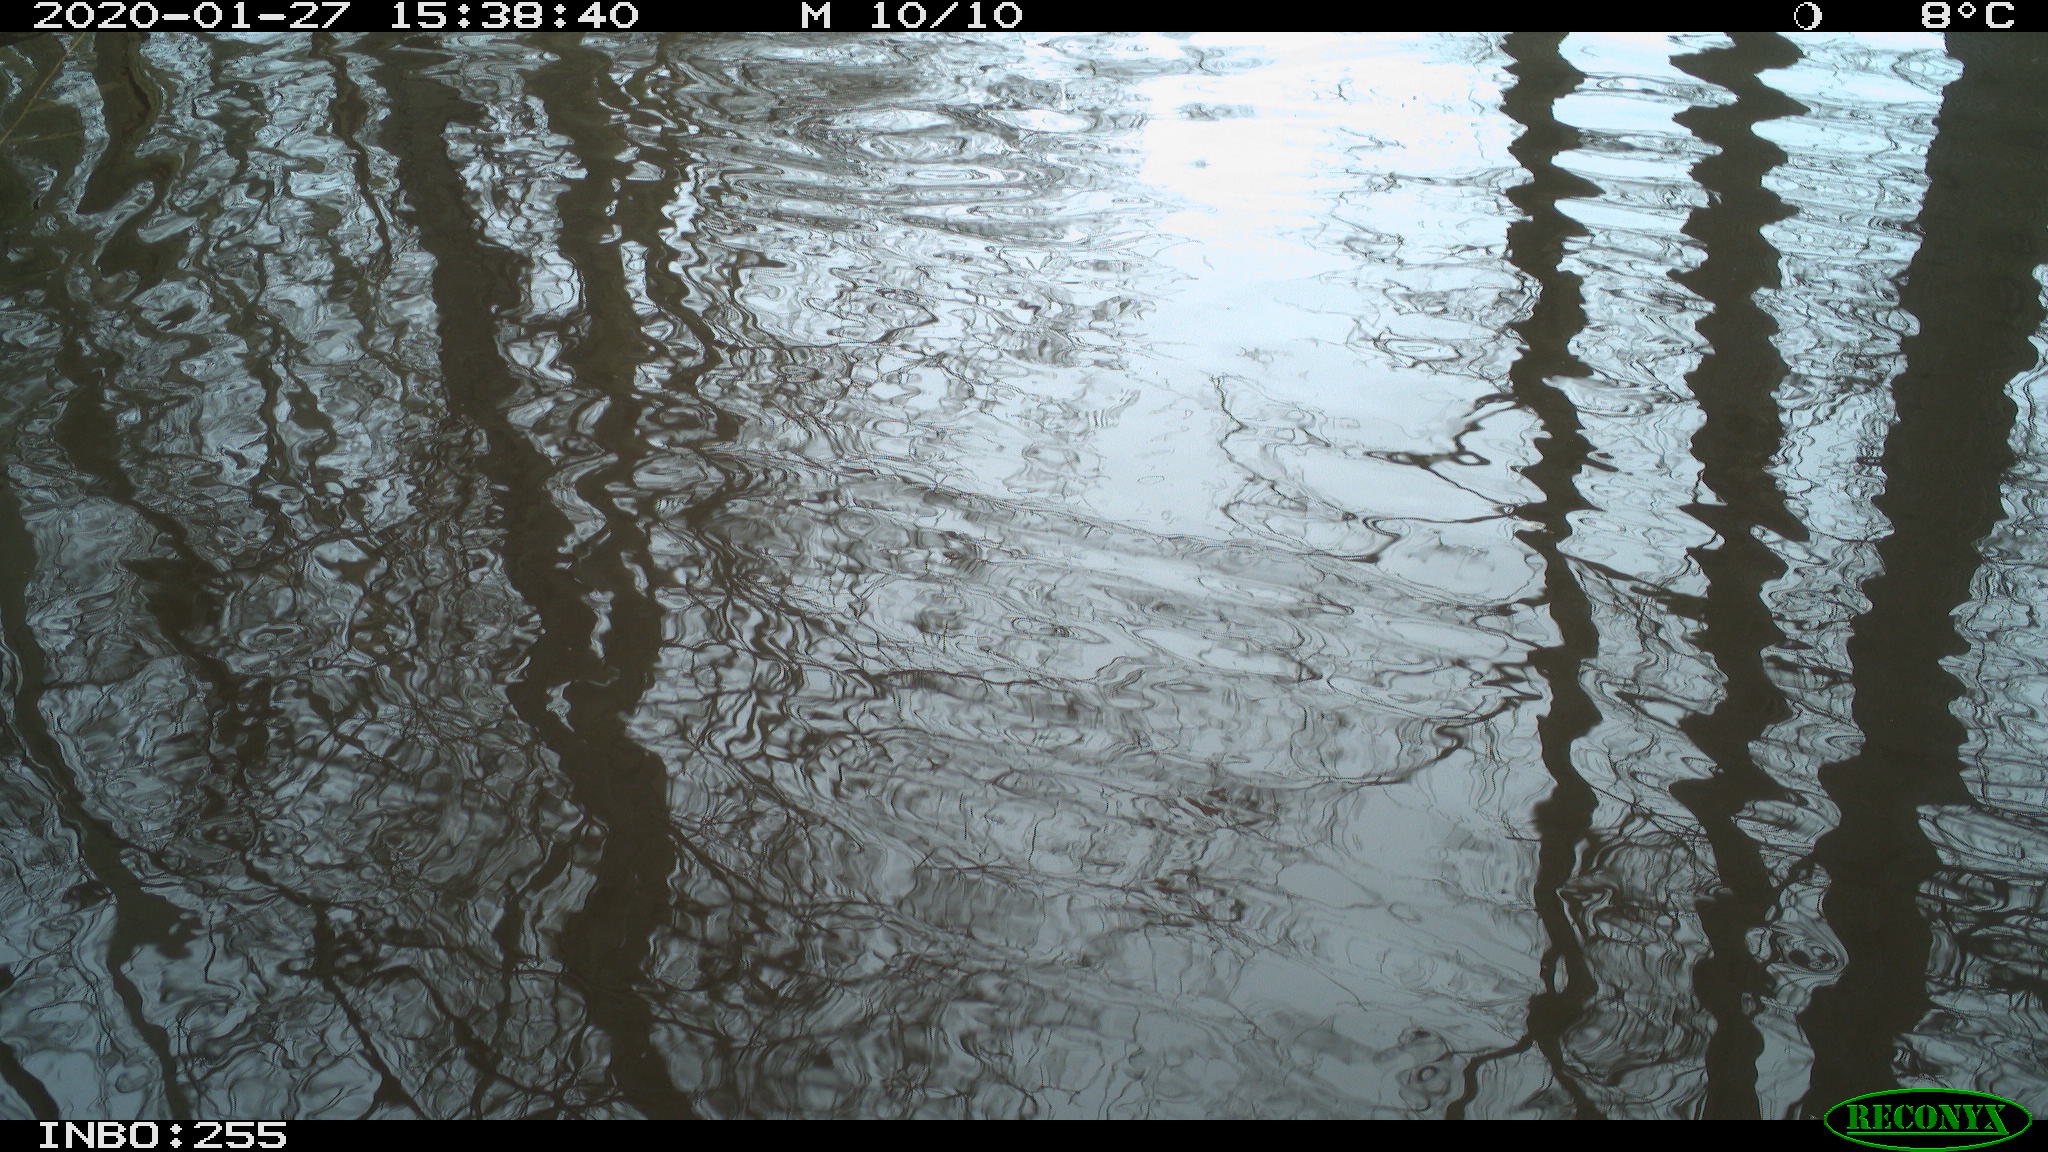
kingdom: Animalia
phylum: Chordata
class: Aves
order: Anseriformes
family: Anatidae
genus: Anas
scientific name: Anas platyrhynchos
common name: Mallard
